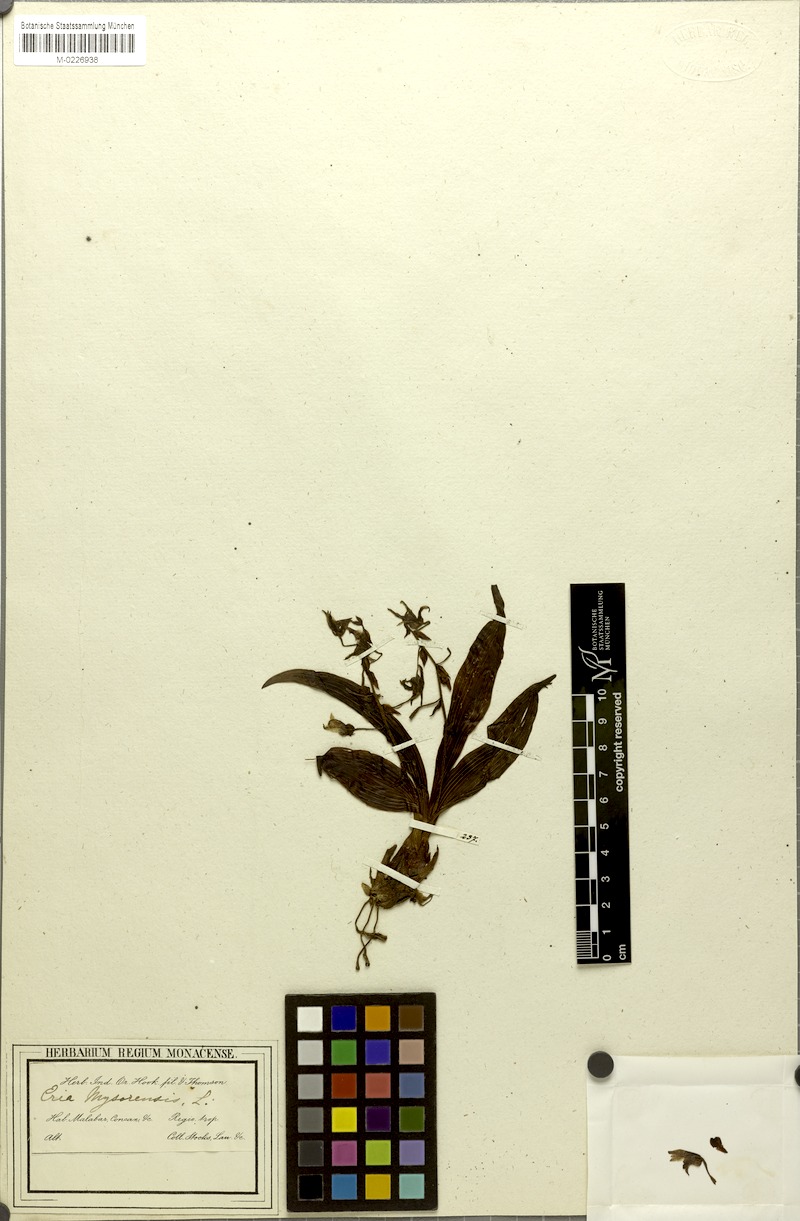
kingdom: Plantae
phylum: Tracheophyta
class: Liliopsida
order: Asparagales
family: Orchidaceae
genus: Pinalia
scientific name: Pinalia mysorensis
